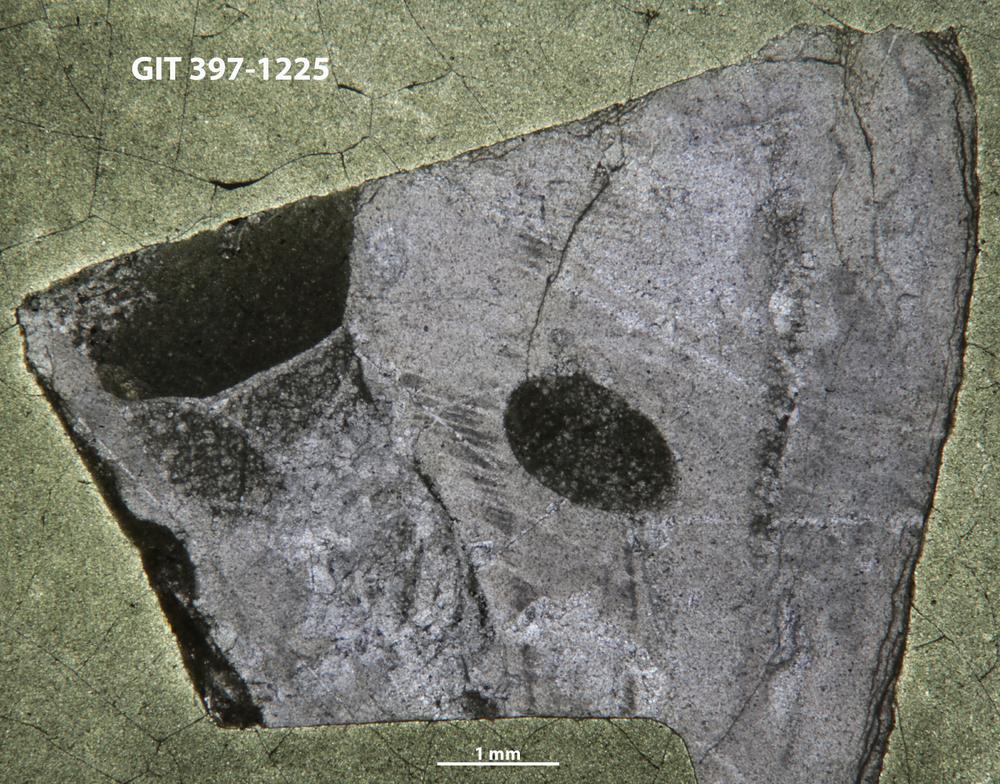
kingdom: Animalia
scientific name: Animalia
